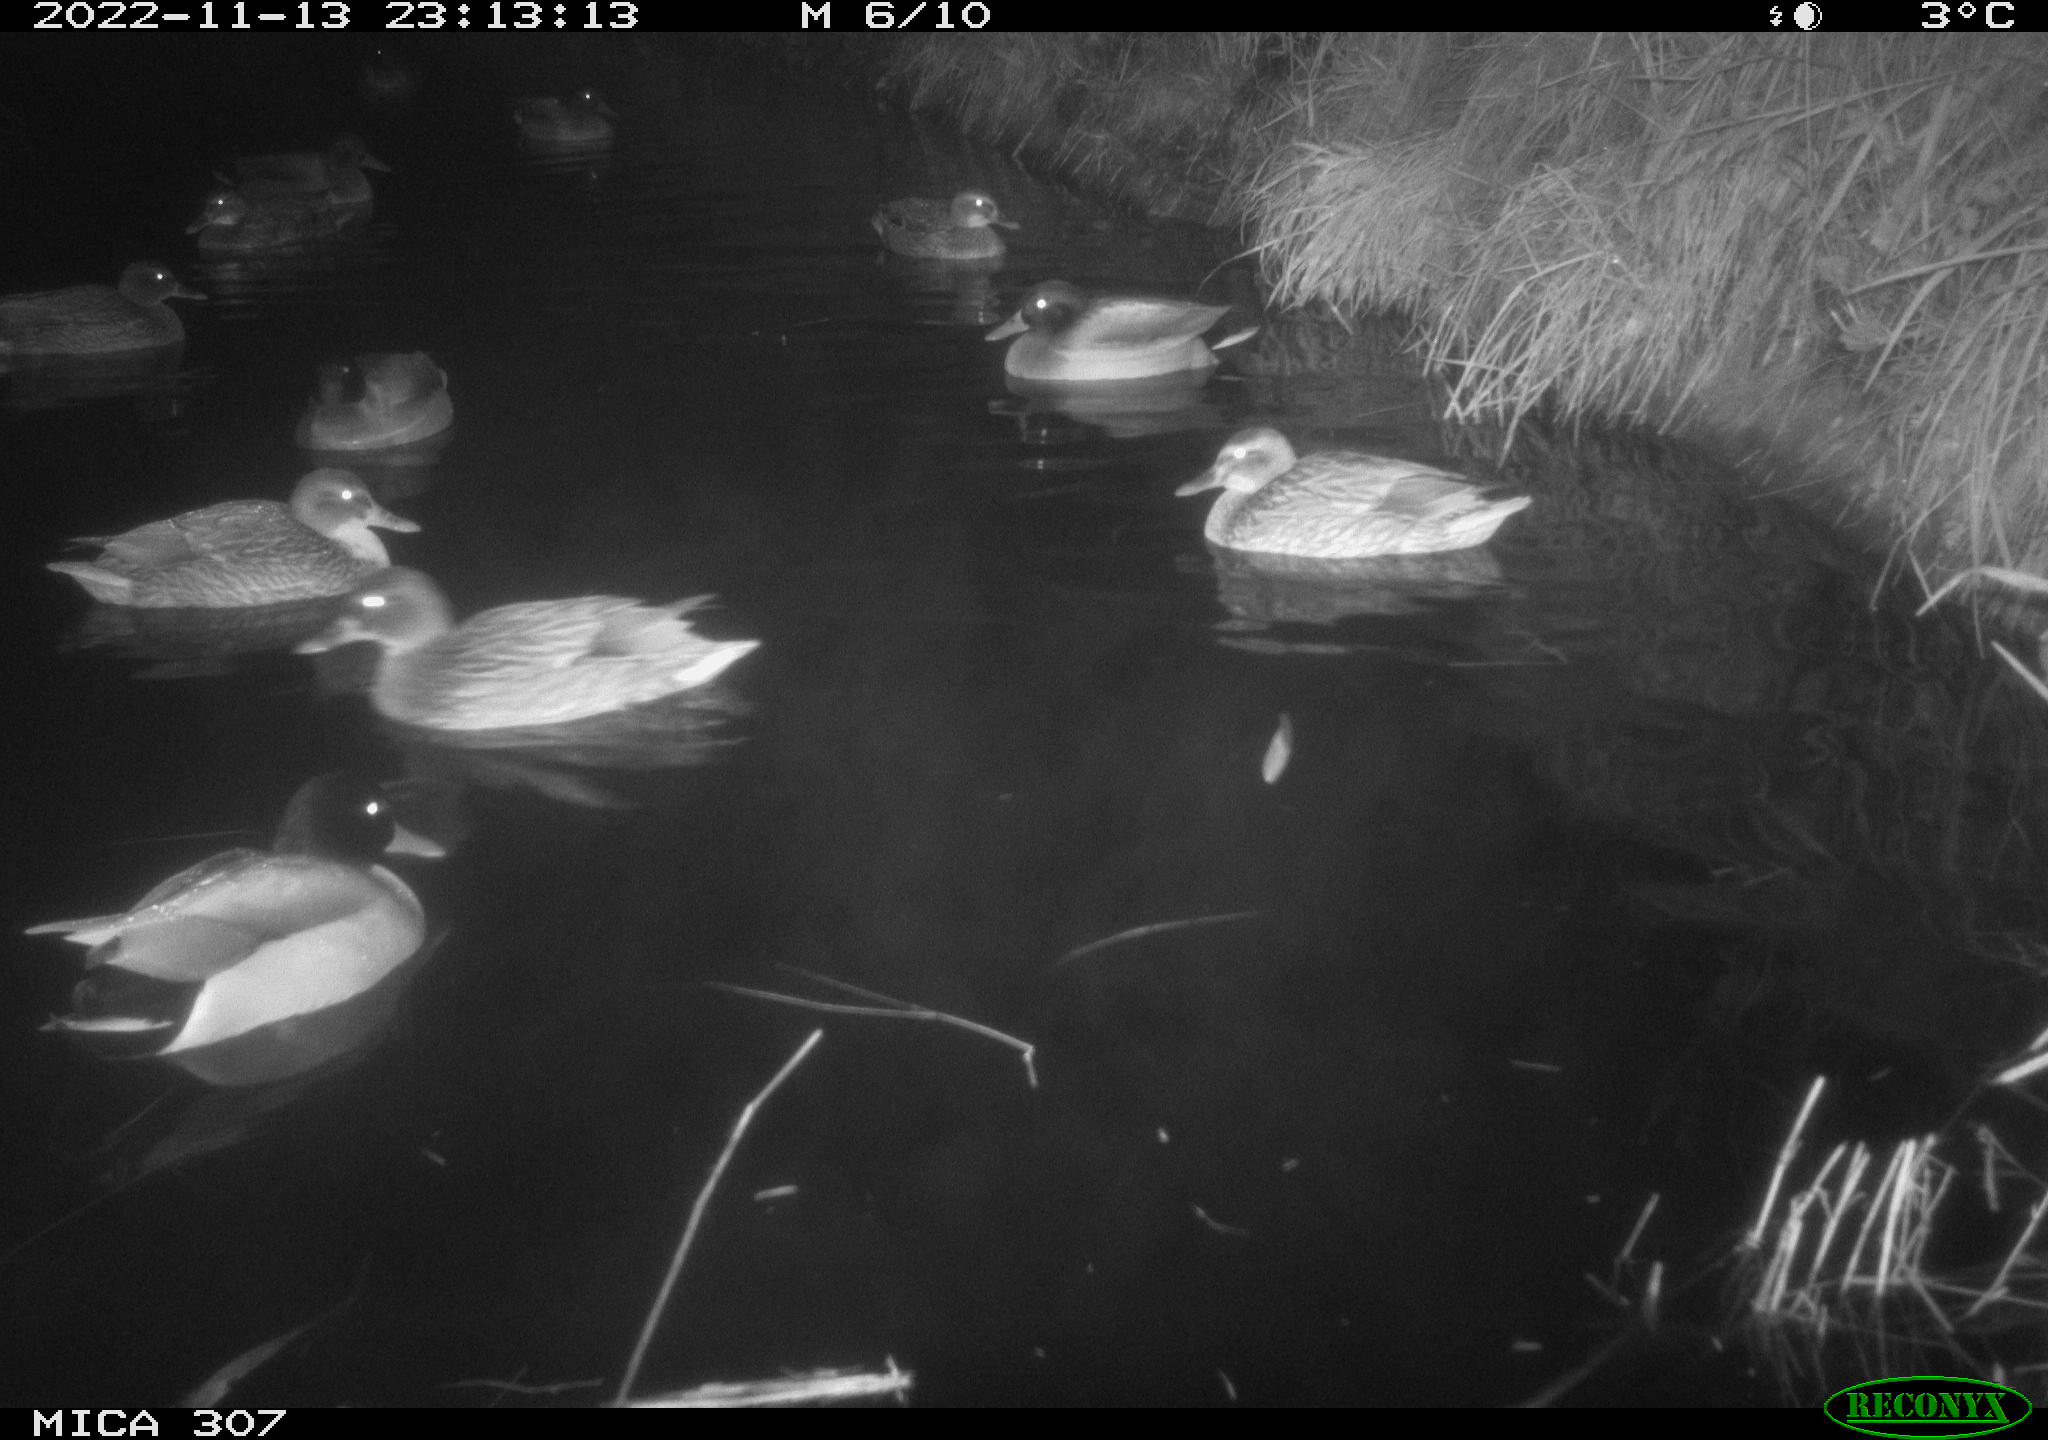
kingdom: Animalia
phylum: Chordata
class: Aves
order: Anseriformes
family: Anatidae
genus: Anas
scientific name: Anas
